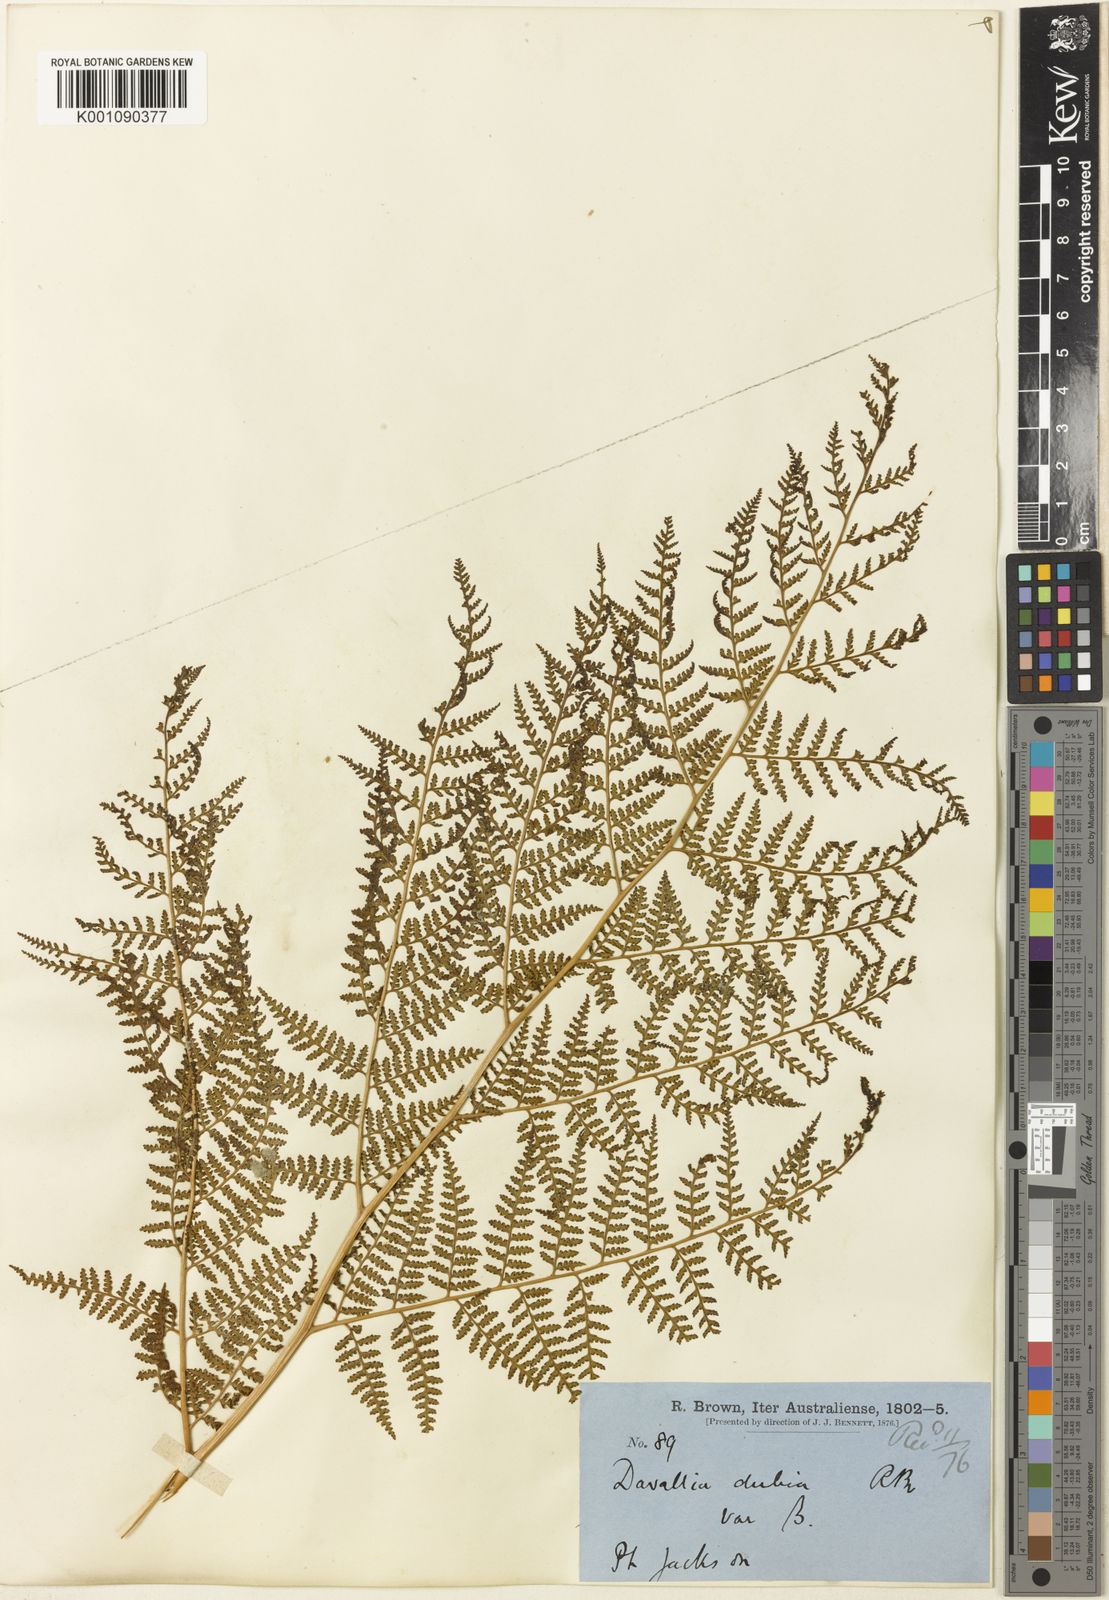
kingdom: Plantae
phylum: Tracheophyta
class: Polypodiopsida
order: Cyatheales
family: Dicksoniaceae
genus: Calochlaena
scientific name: Calochlaena dubia
